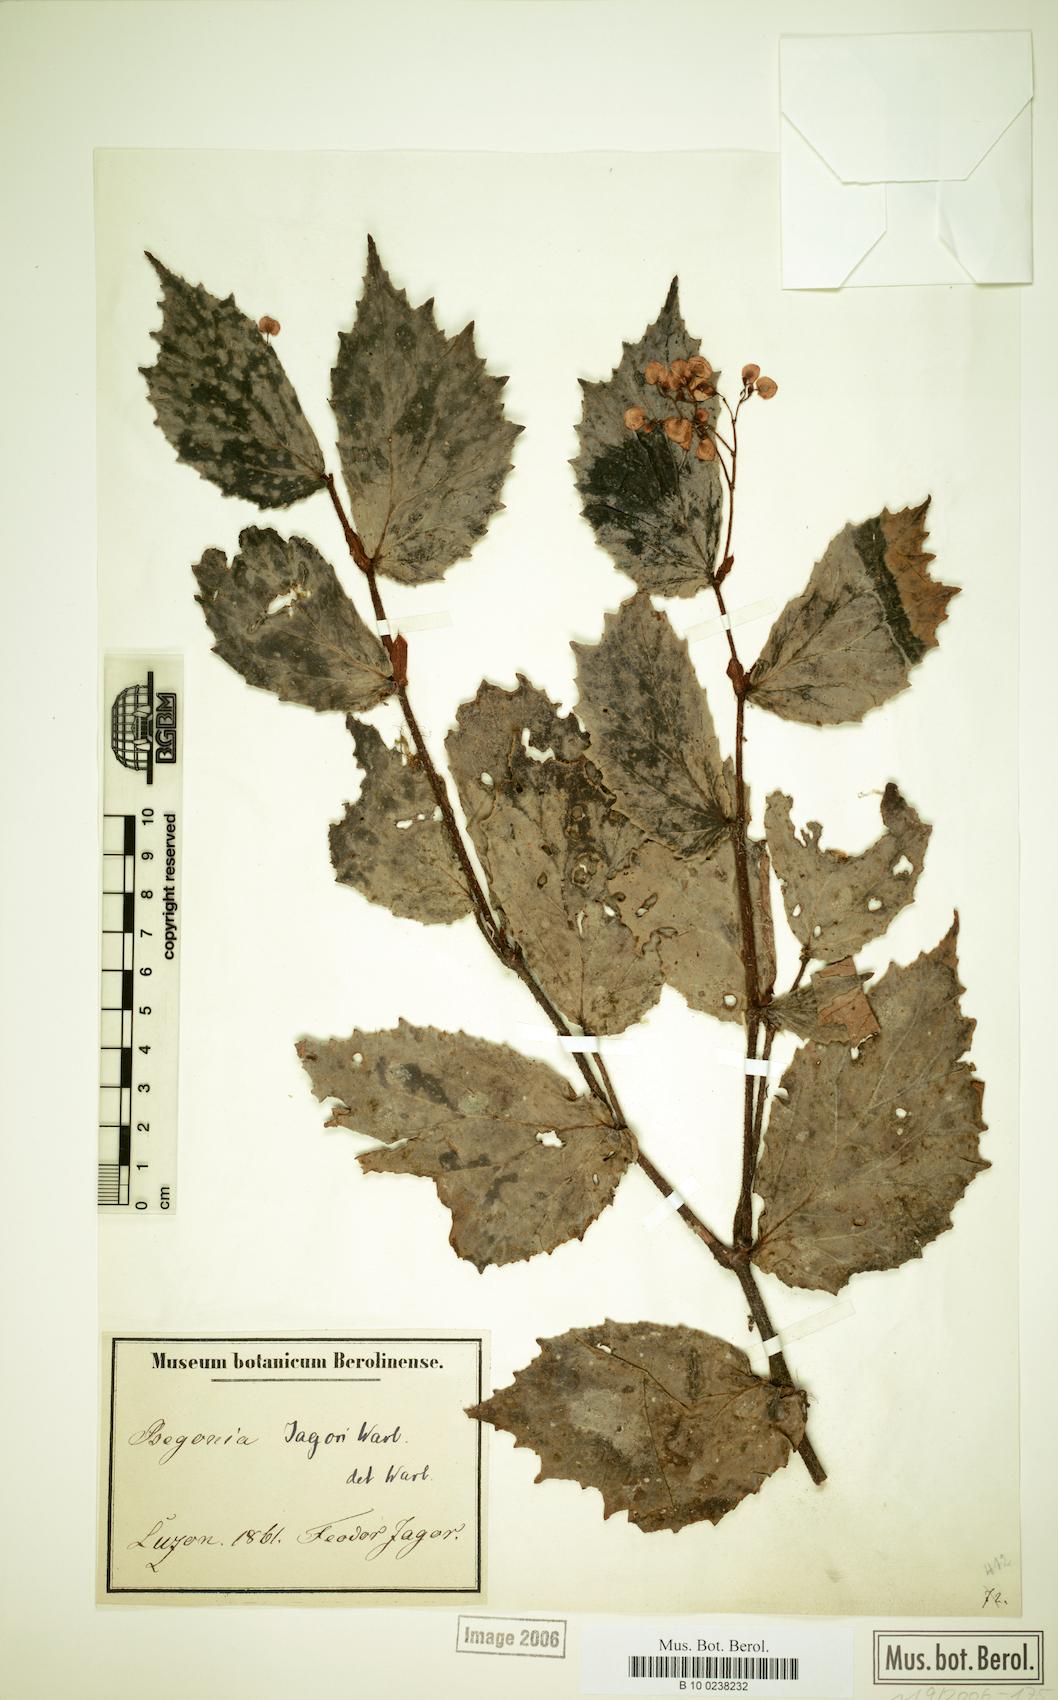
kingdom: Plantae
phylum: Tracheophyta
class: Magnoliopsida
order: Cucurbitales
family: Begoniaceae
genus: Begonia
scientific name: Begonia jagorii
